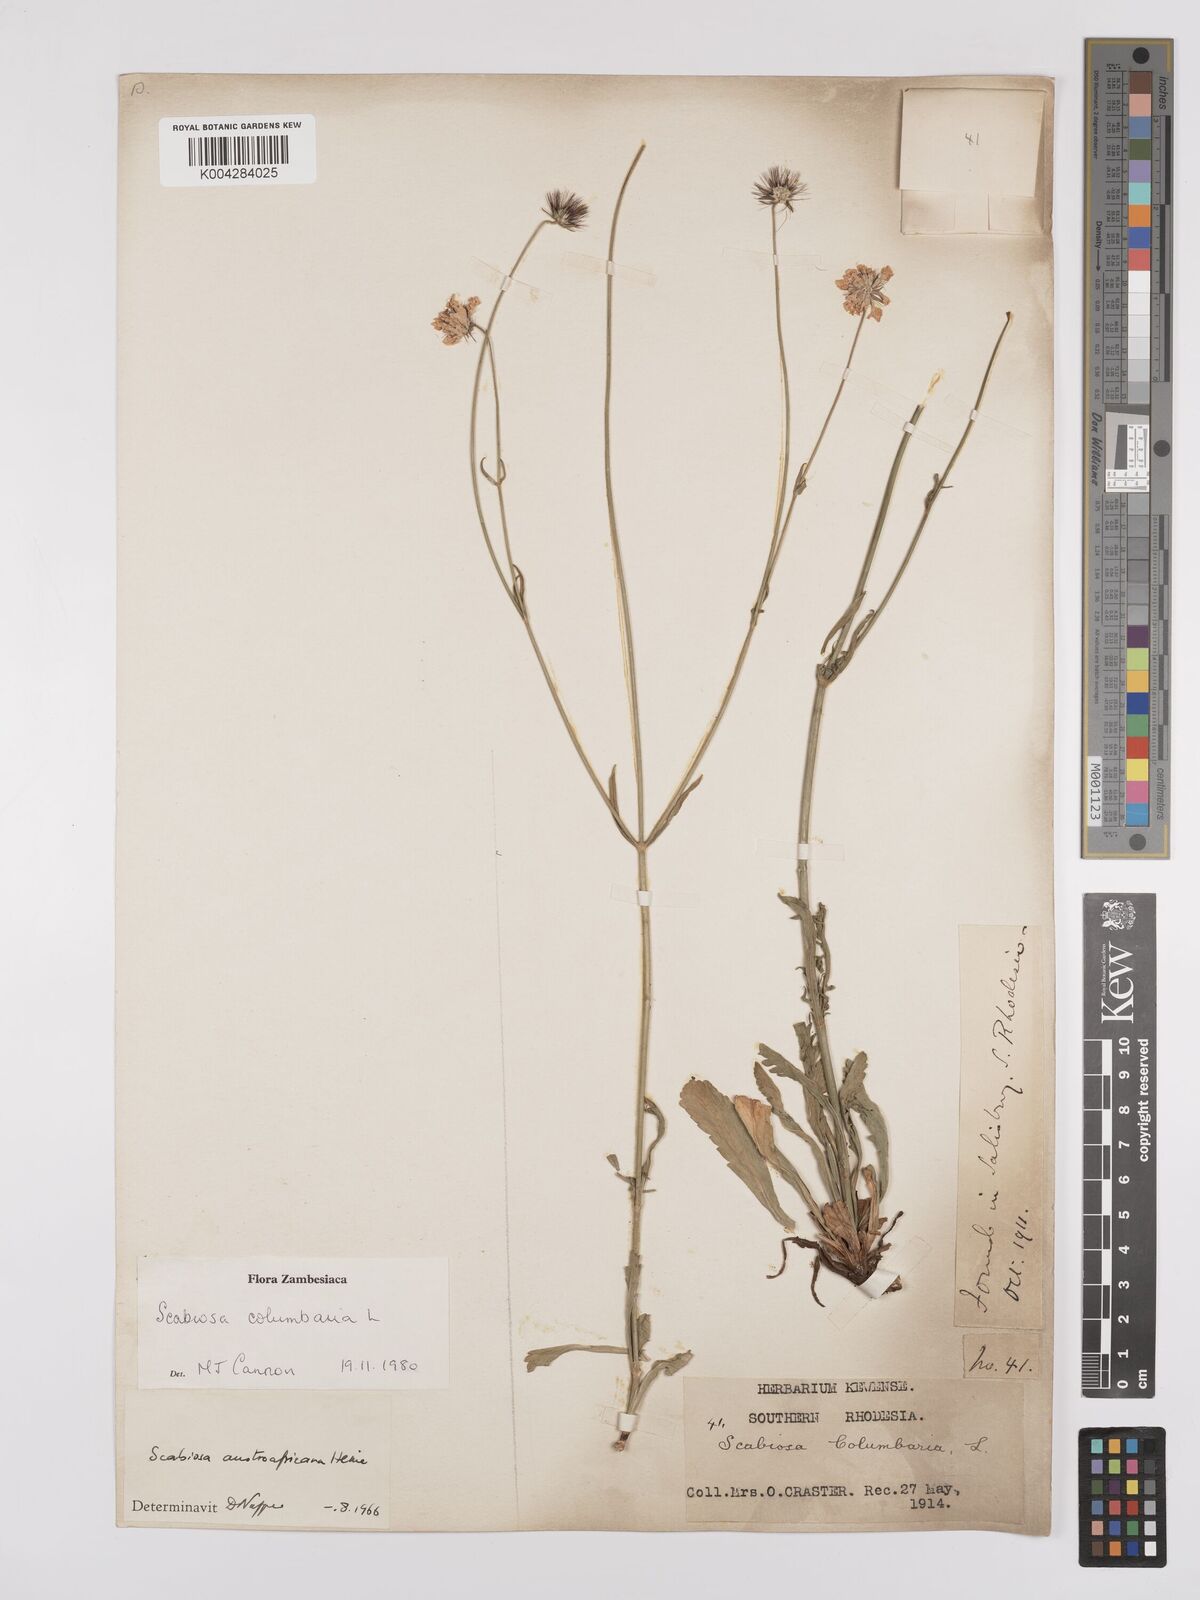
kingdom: Plantae
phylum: Tracheophyta
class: Magnoliopsida
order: Dipsacales
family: Caprifoliaceae
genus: Scabiosa
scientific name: Scabiosa austroafricana
